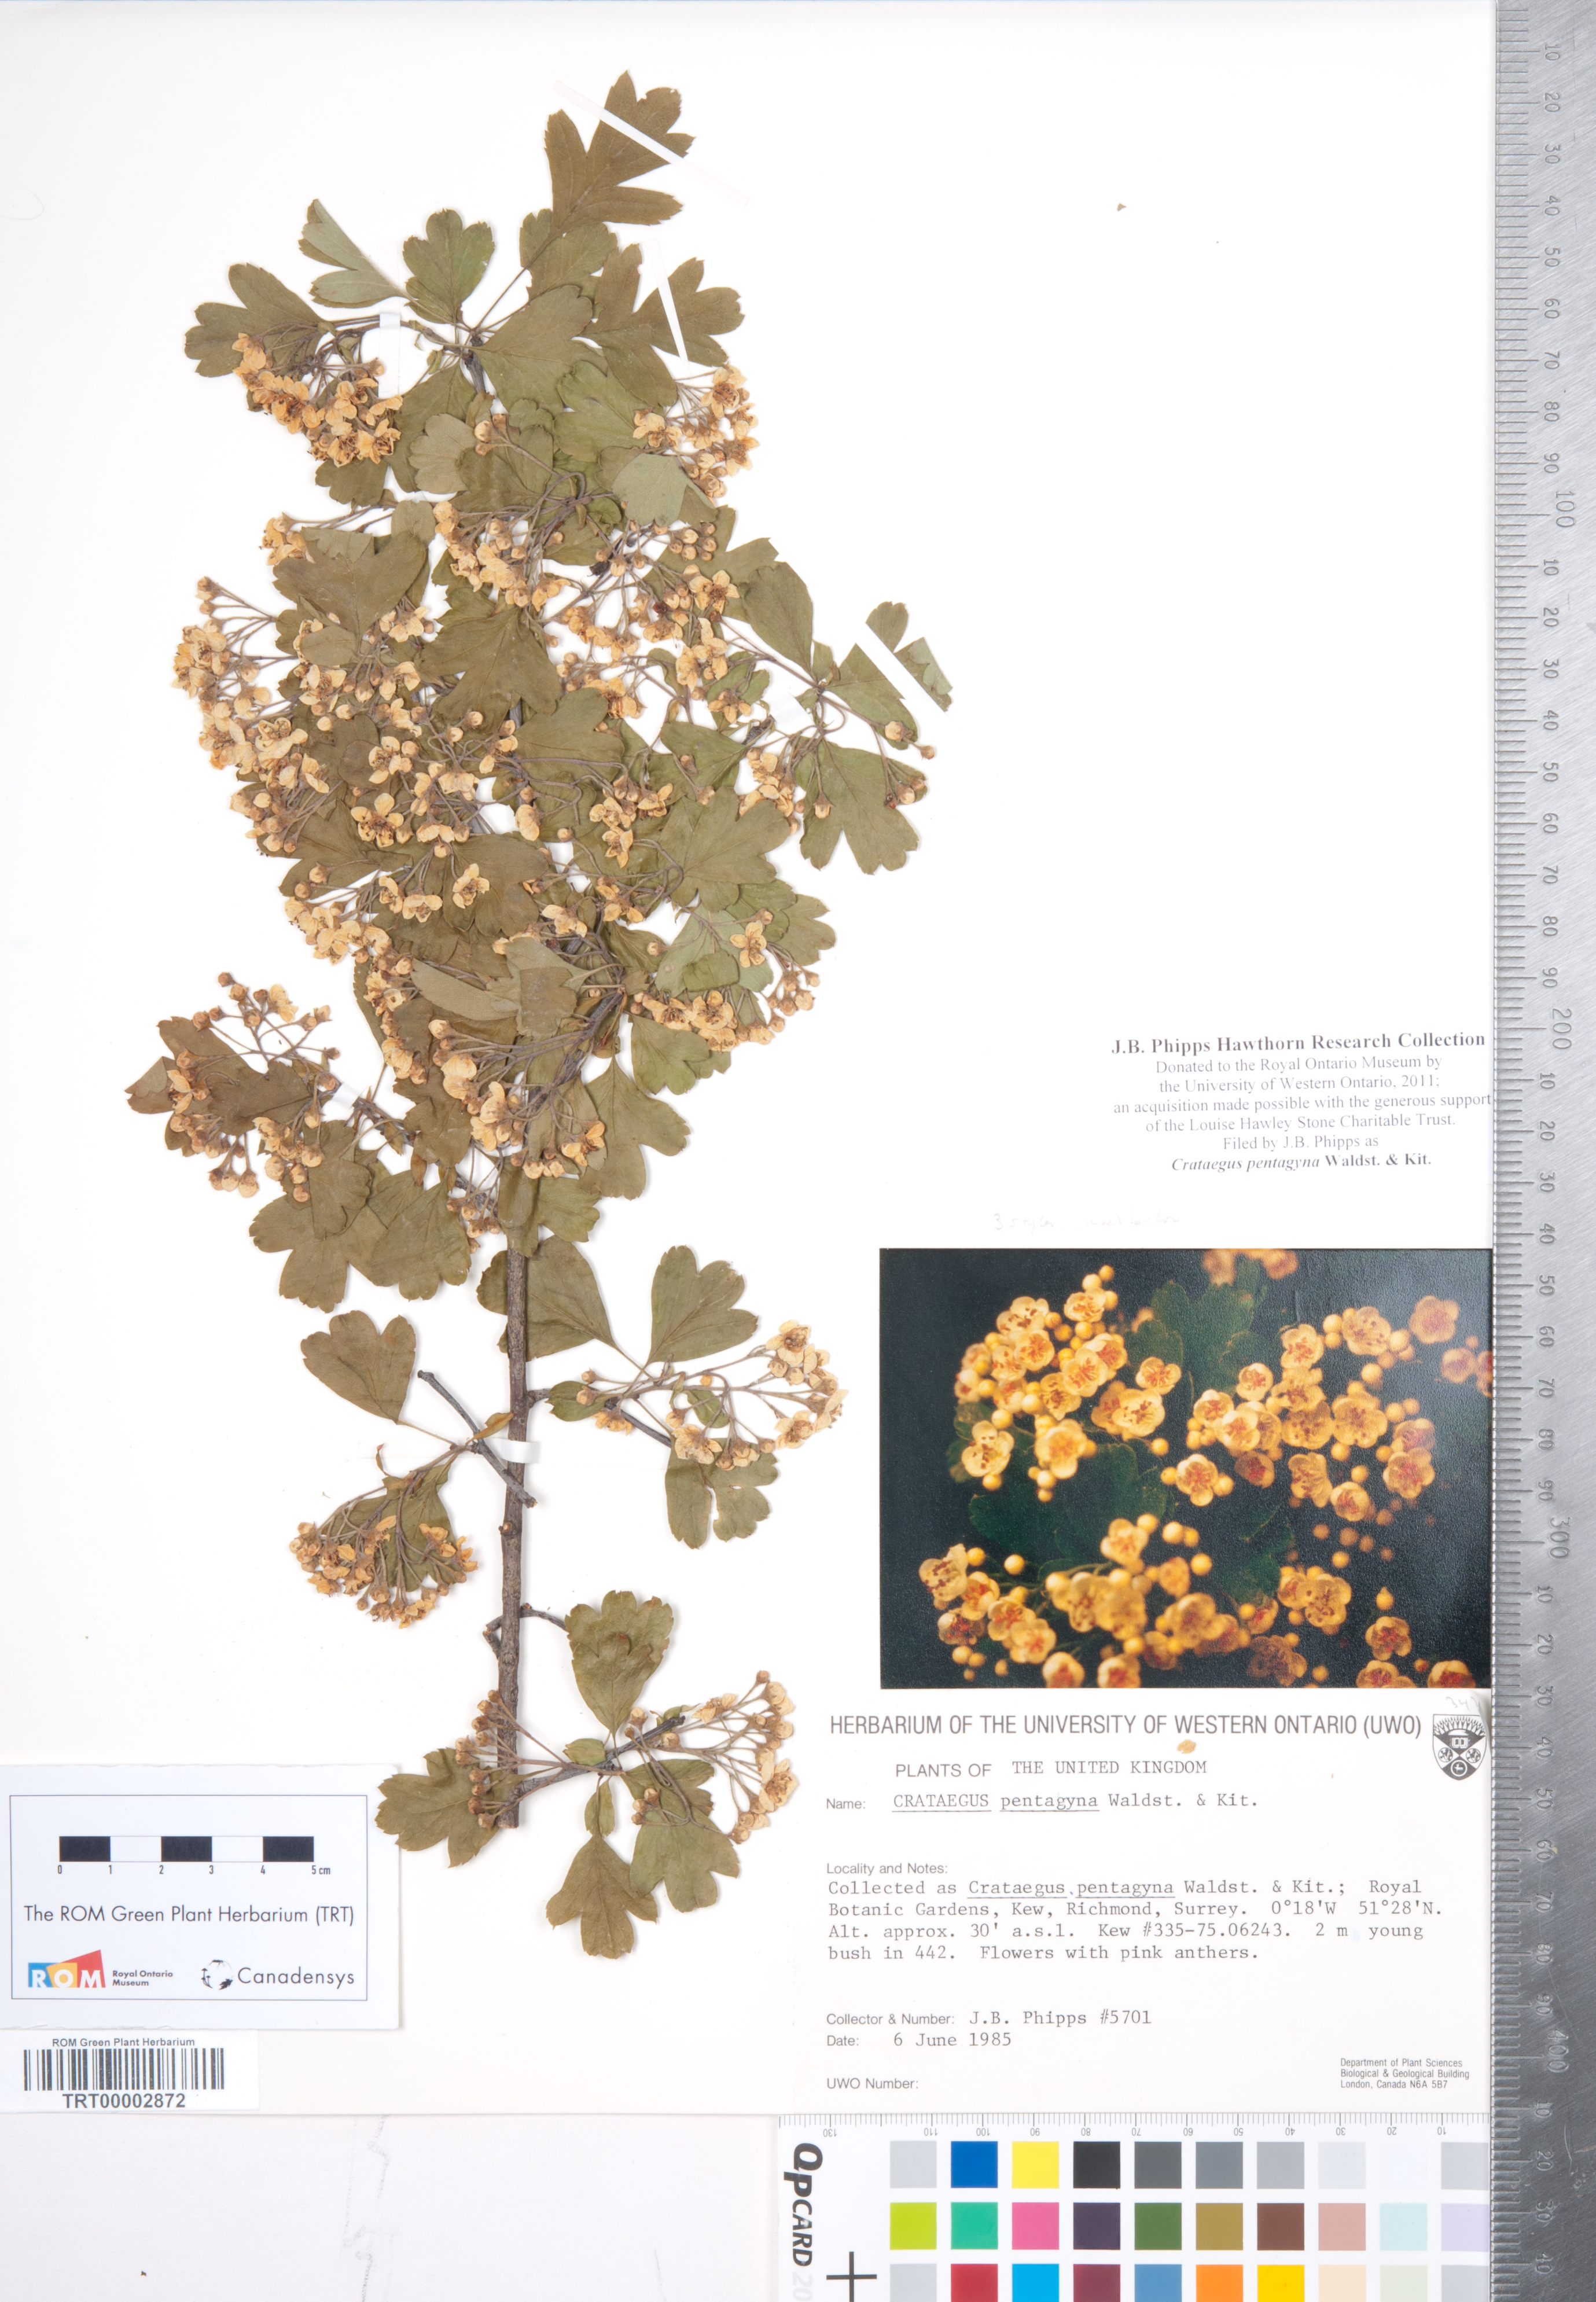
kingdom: Plantae
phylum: Tracheophyta
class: Magnoliopsida
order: Rosales
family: Rosaceae
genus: Crataegus
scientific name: Crataegus pentagyna
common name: Small-flowered black hawthorn
